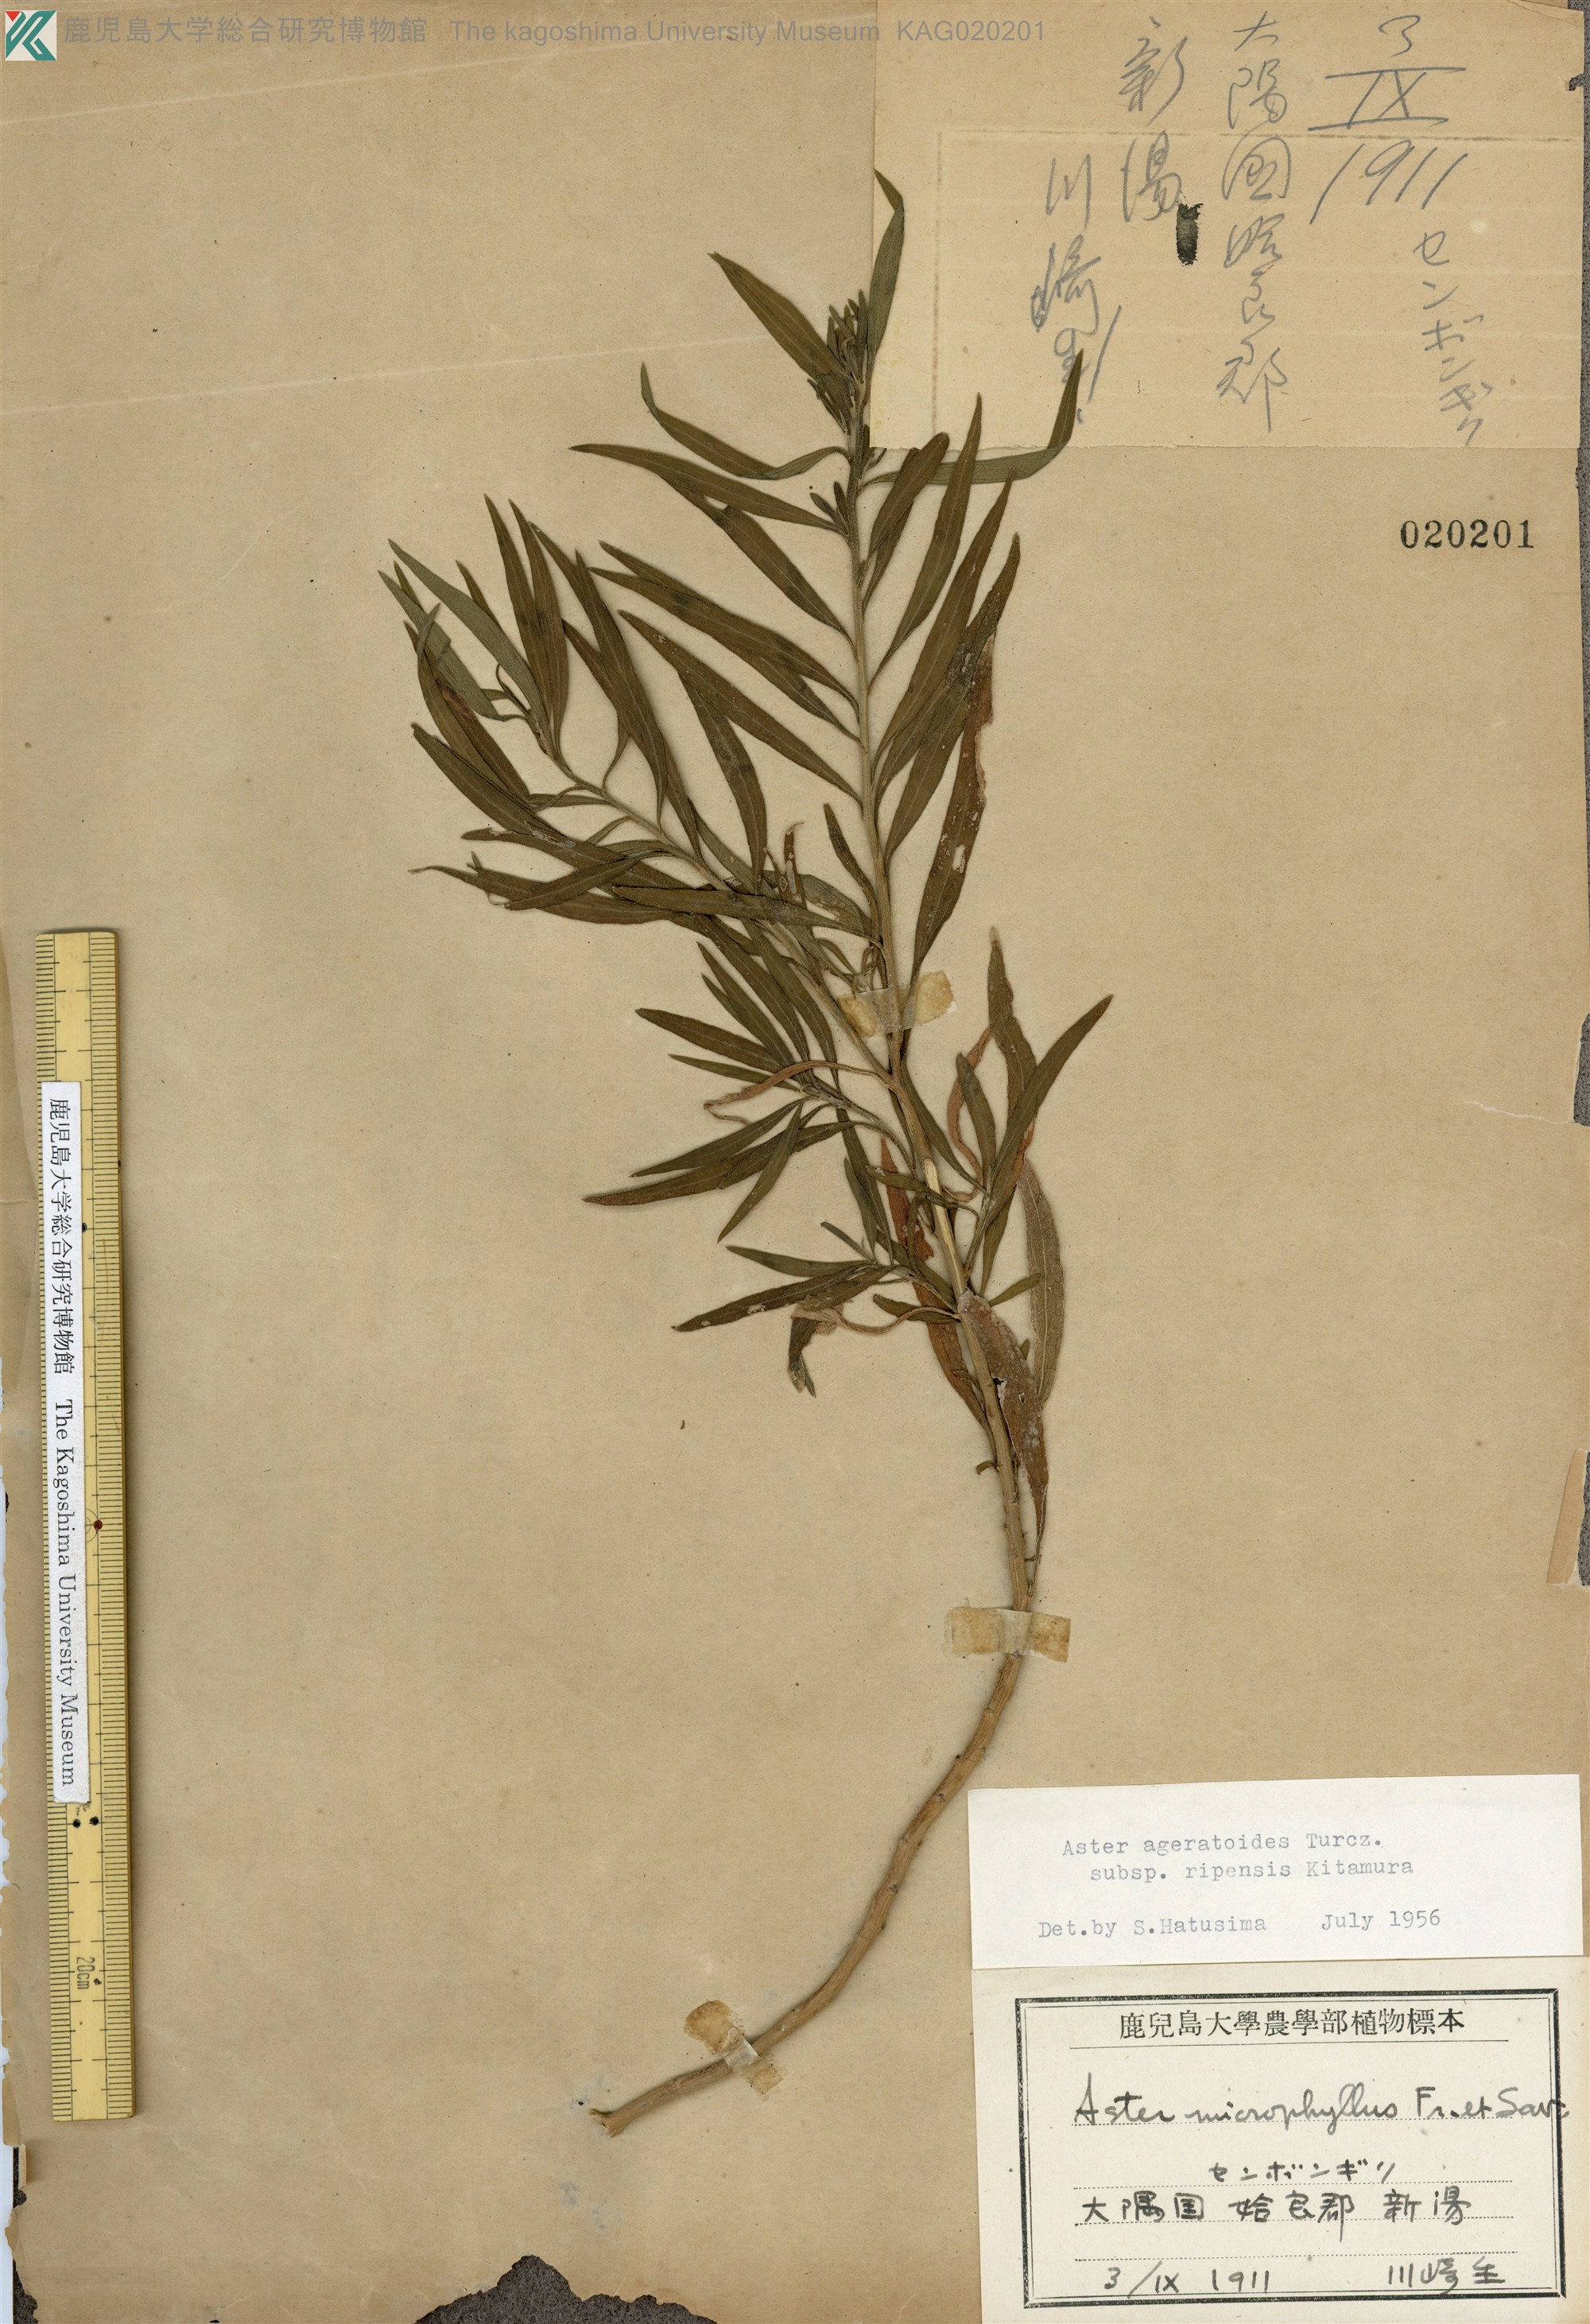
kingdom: Plantae
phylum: Tracheophyta
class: Magnoliopsida
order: Asterales
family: Asteraceae
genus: Aster
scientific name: Aster microcephalus
